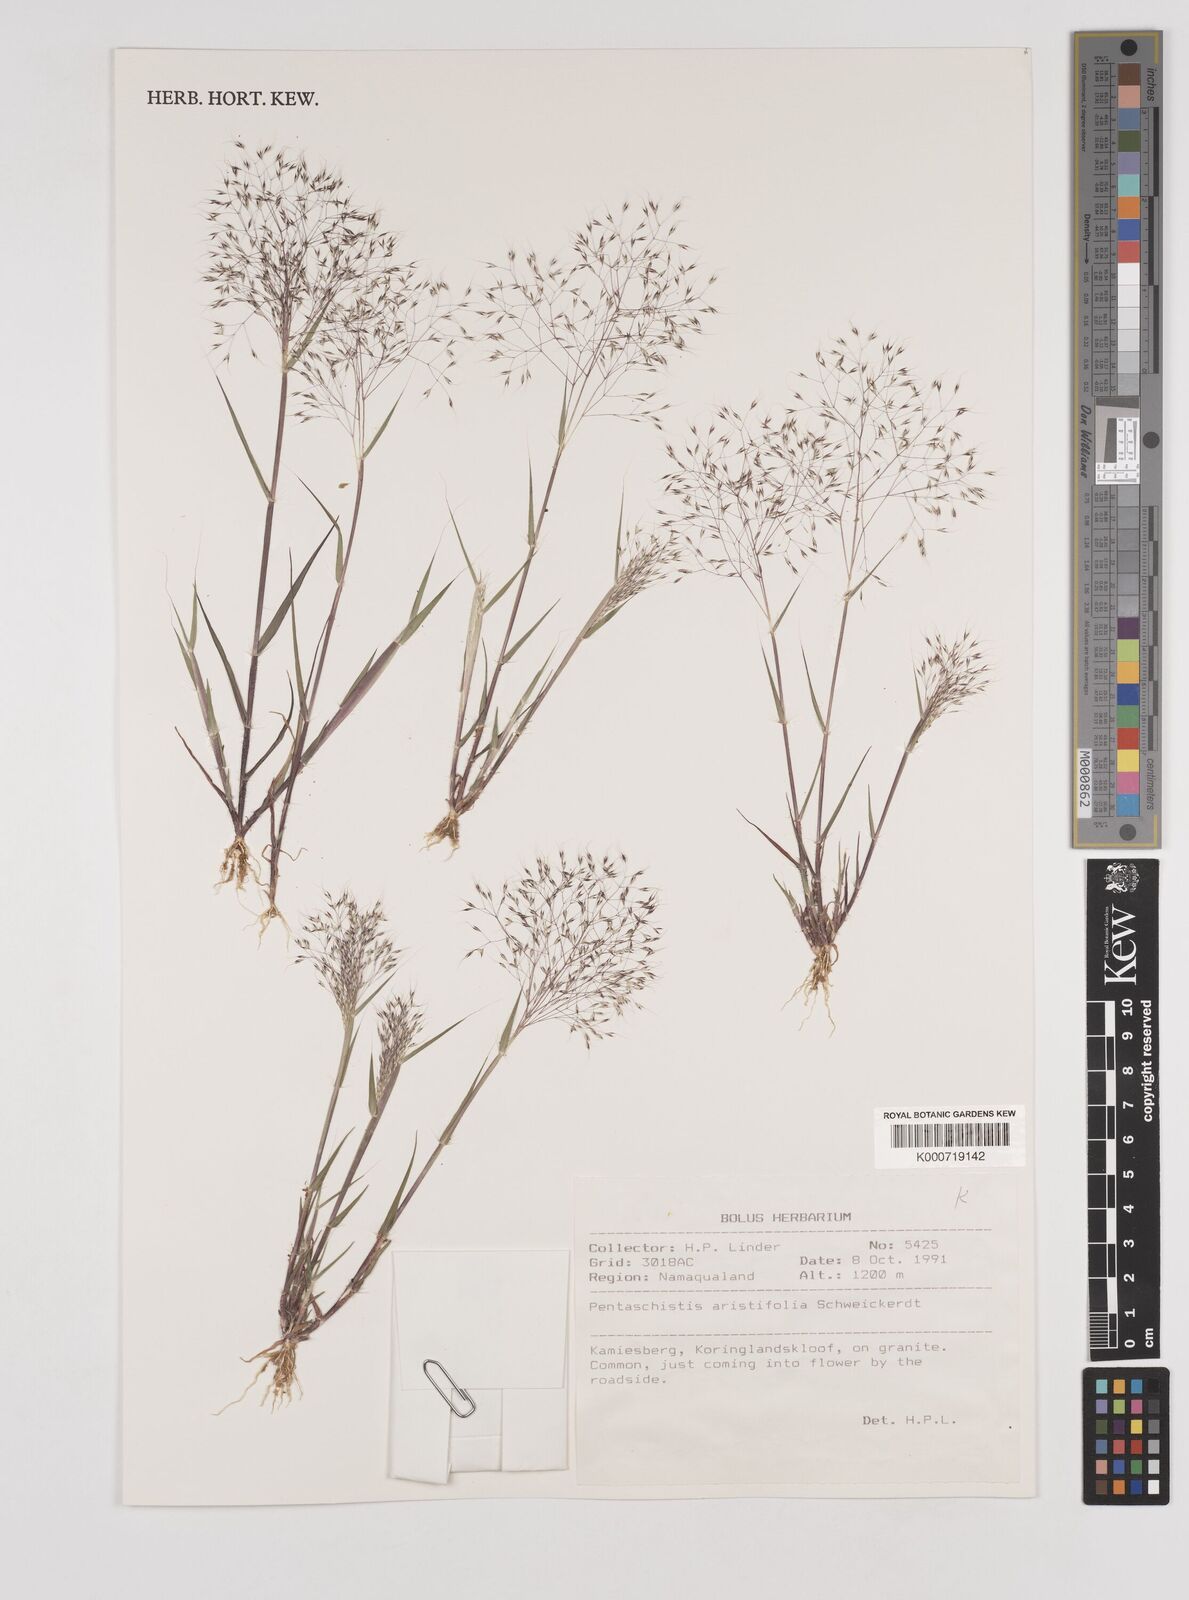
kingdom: Plantae
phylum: Tracheophyta
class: Liliopsida
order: Poales
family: Poaceae
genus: Pentameris
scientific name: Pentameris aristifolia
